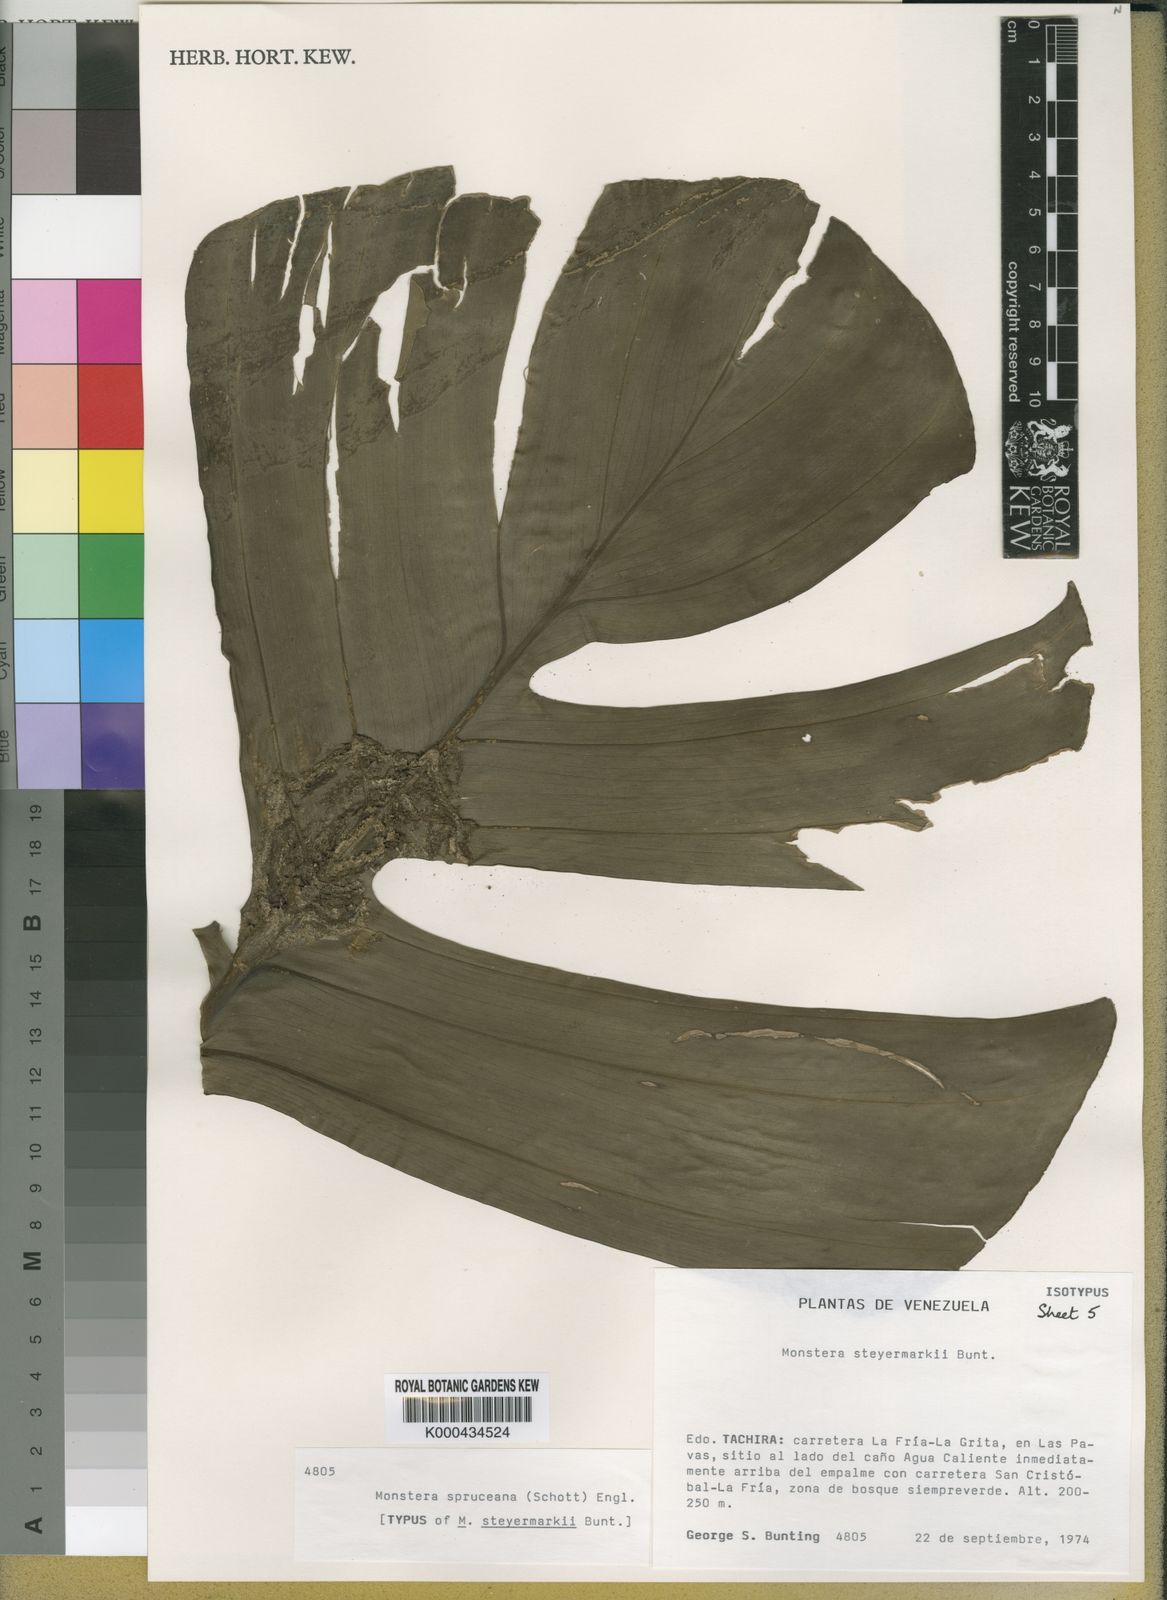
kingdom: Plantae
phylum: Tracheophyta
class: Liliopsida
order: Alismatales
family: Araceae
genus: Monstera
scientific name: Monstera spruceana
